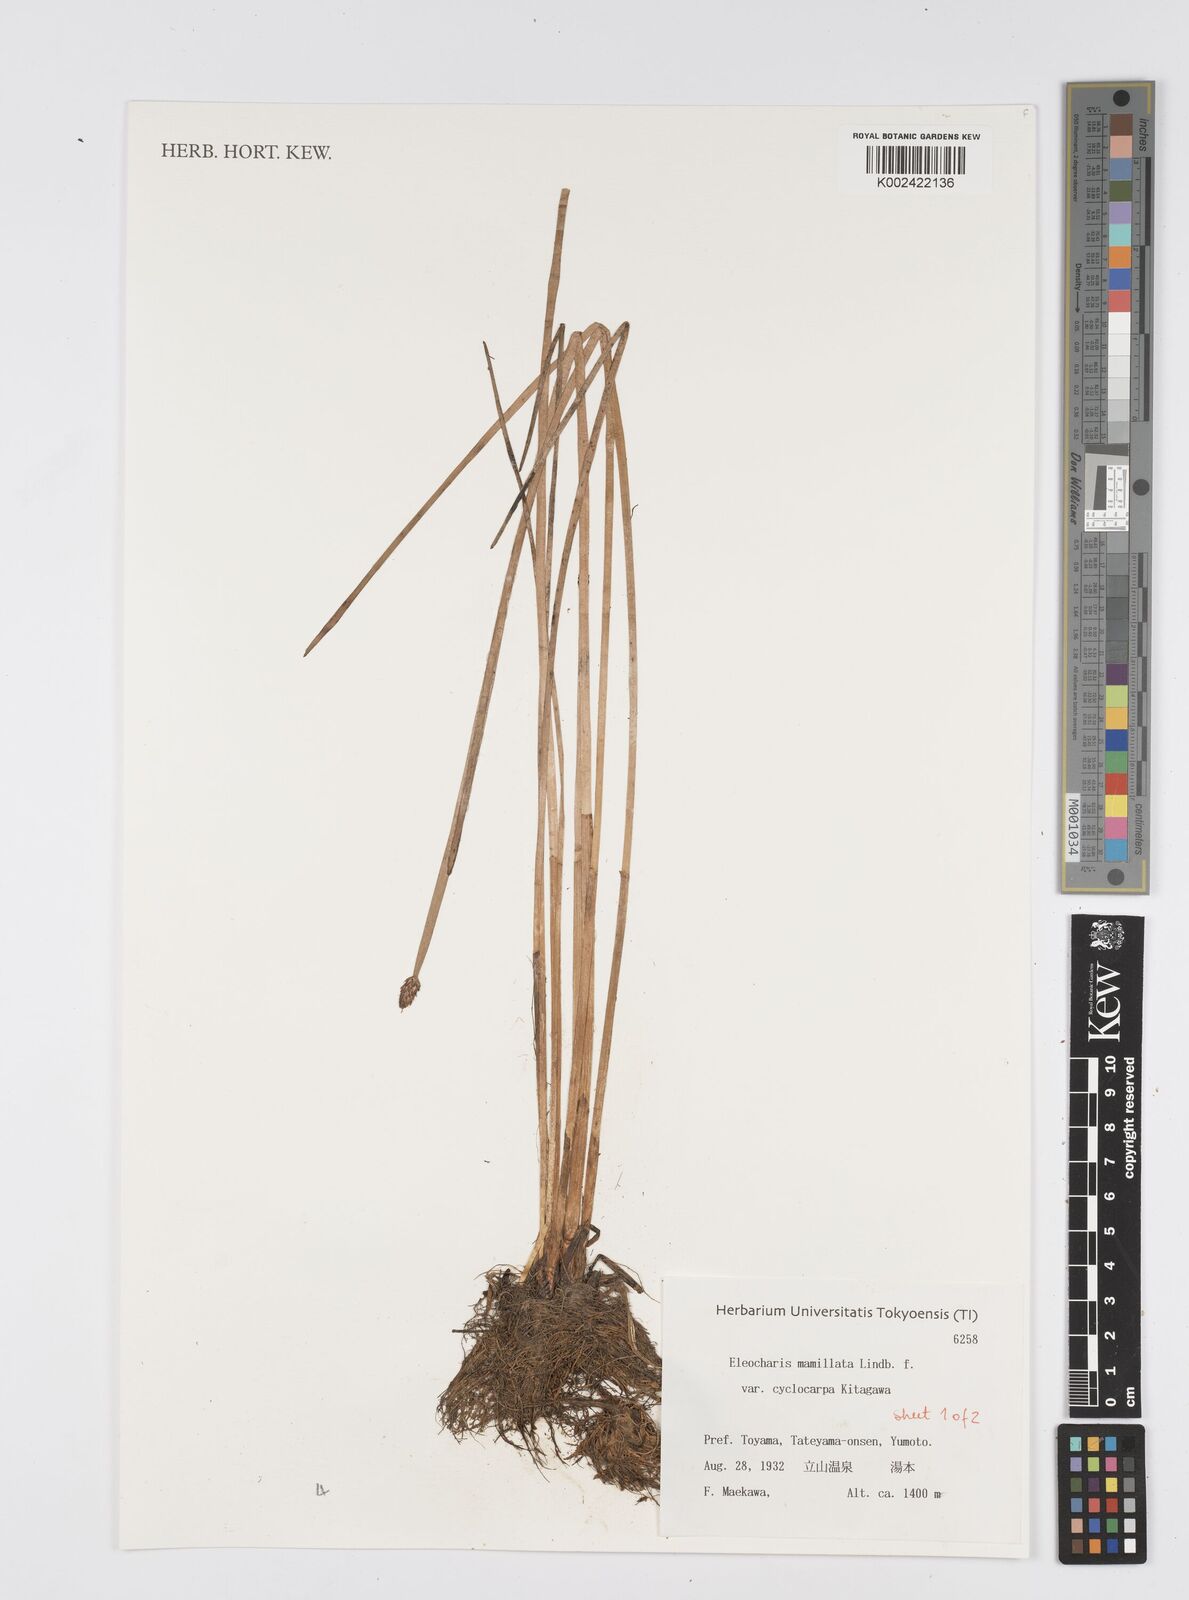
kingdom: Plantae
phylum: Tracheophyta
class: Liliopsida
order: Poales
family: Cyperaceae
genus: Eleocharis
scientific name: Eleocharis mamillata
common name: Northern spike-rush
